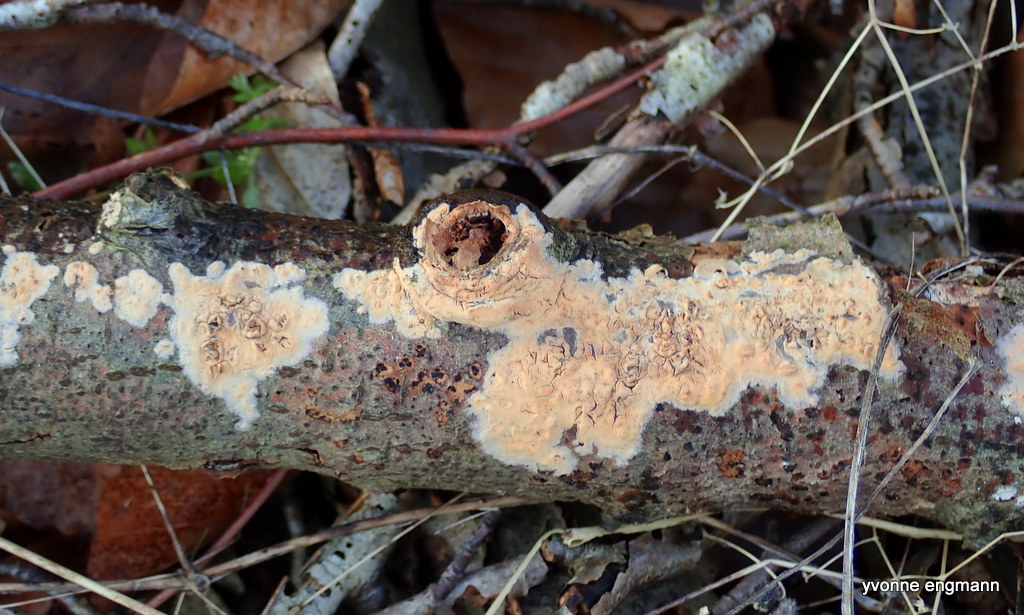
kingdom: Fungi
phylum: Basidiomycota
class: Agaricomycetes
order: Agaricales
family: Physalacriaceae
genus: Cylindrobasidium
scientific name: Cylindrobasidium evolvens
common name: sprækkehinde
